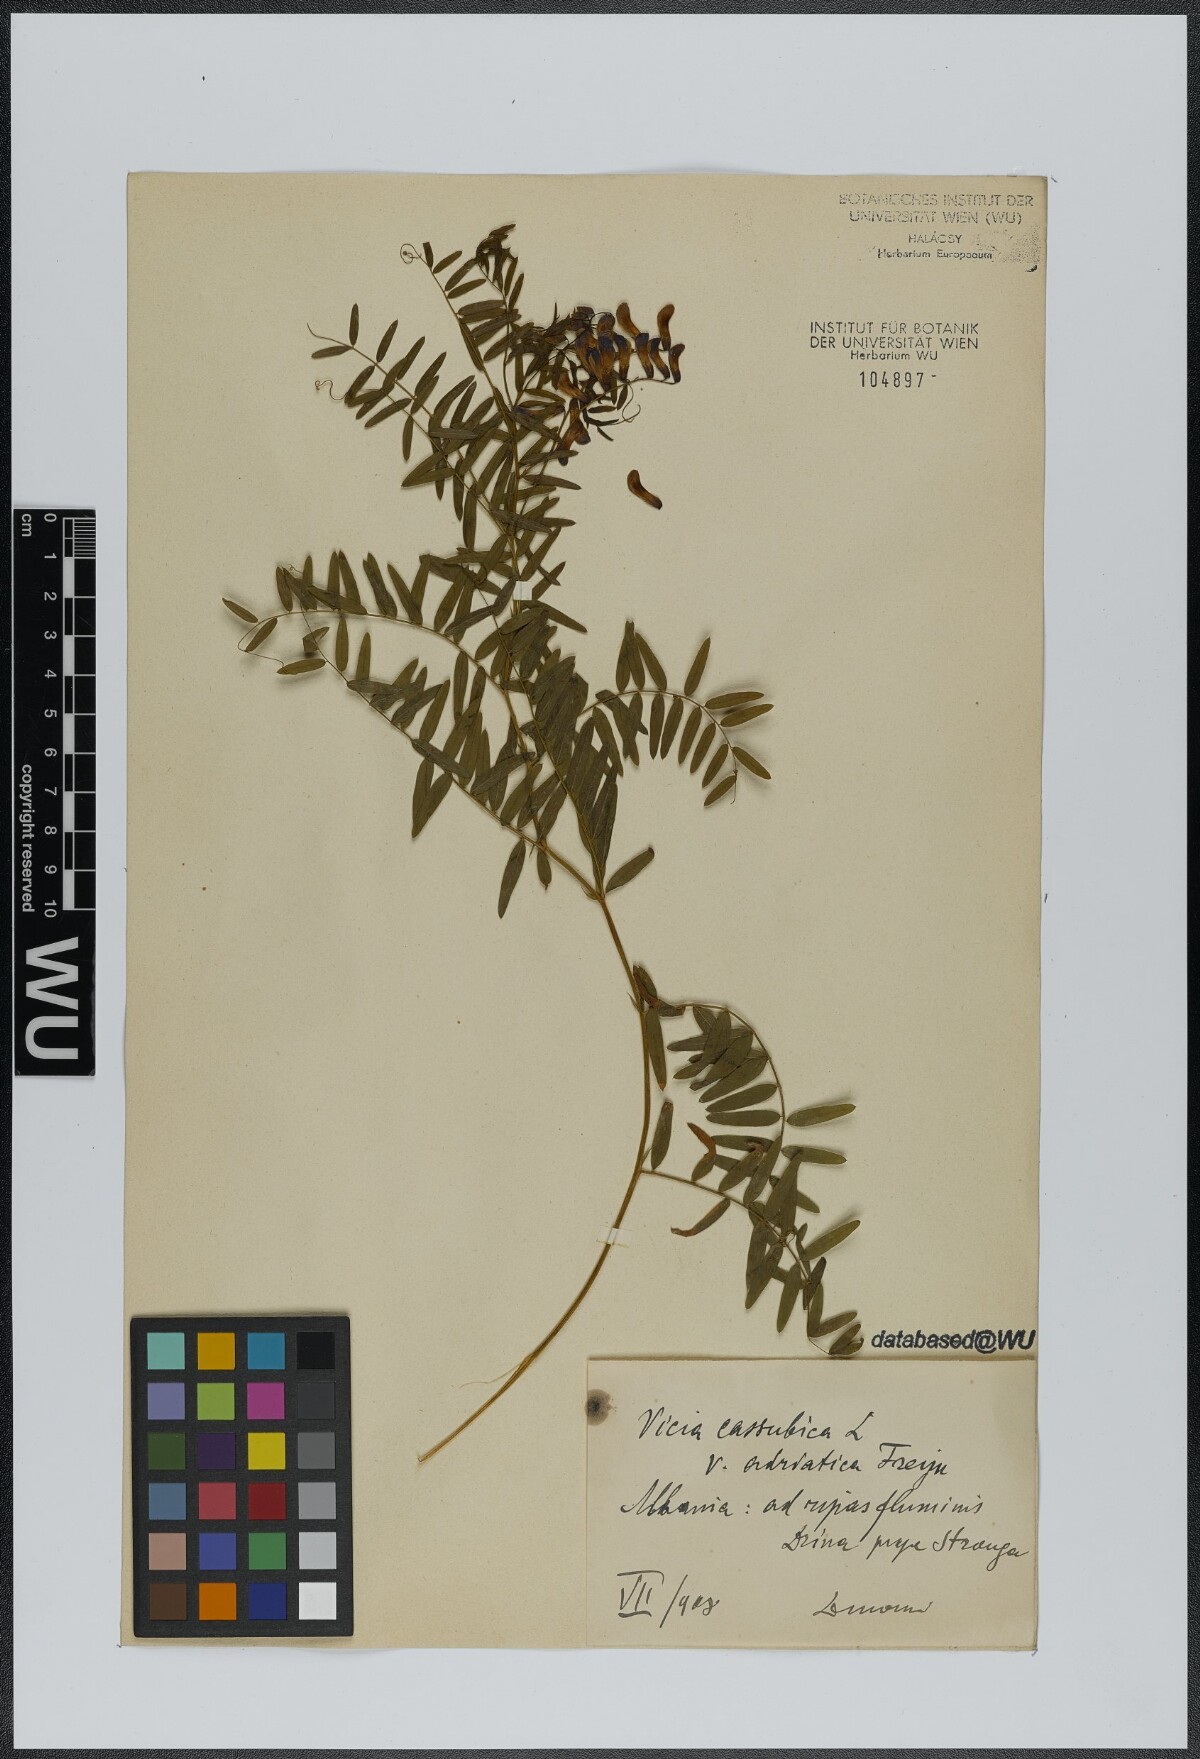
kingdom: Plantae
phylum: Tracheophyta
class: Magnoliopsida
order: Fabales
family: Fabaceae
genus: Vicia
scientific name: Vicia cassubica
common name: Danzig vetch
